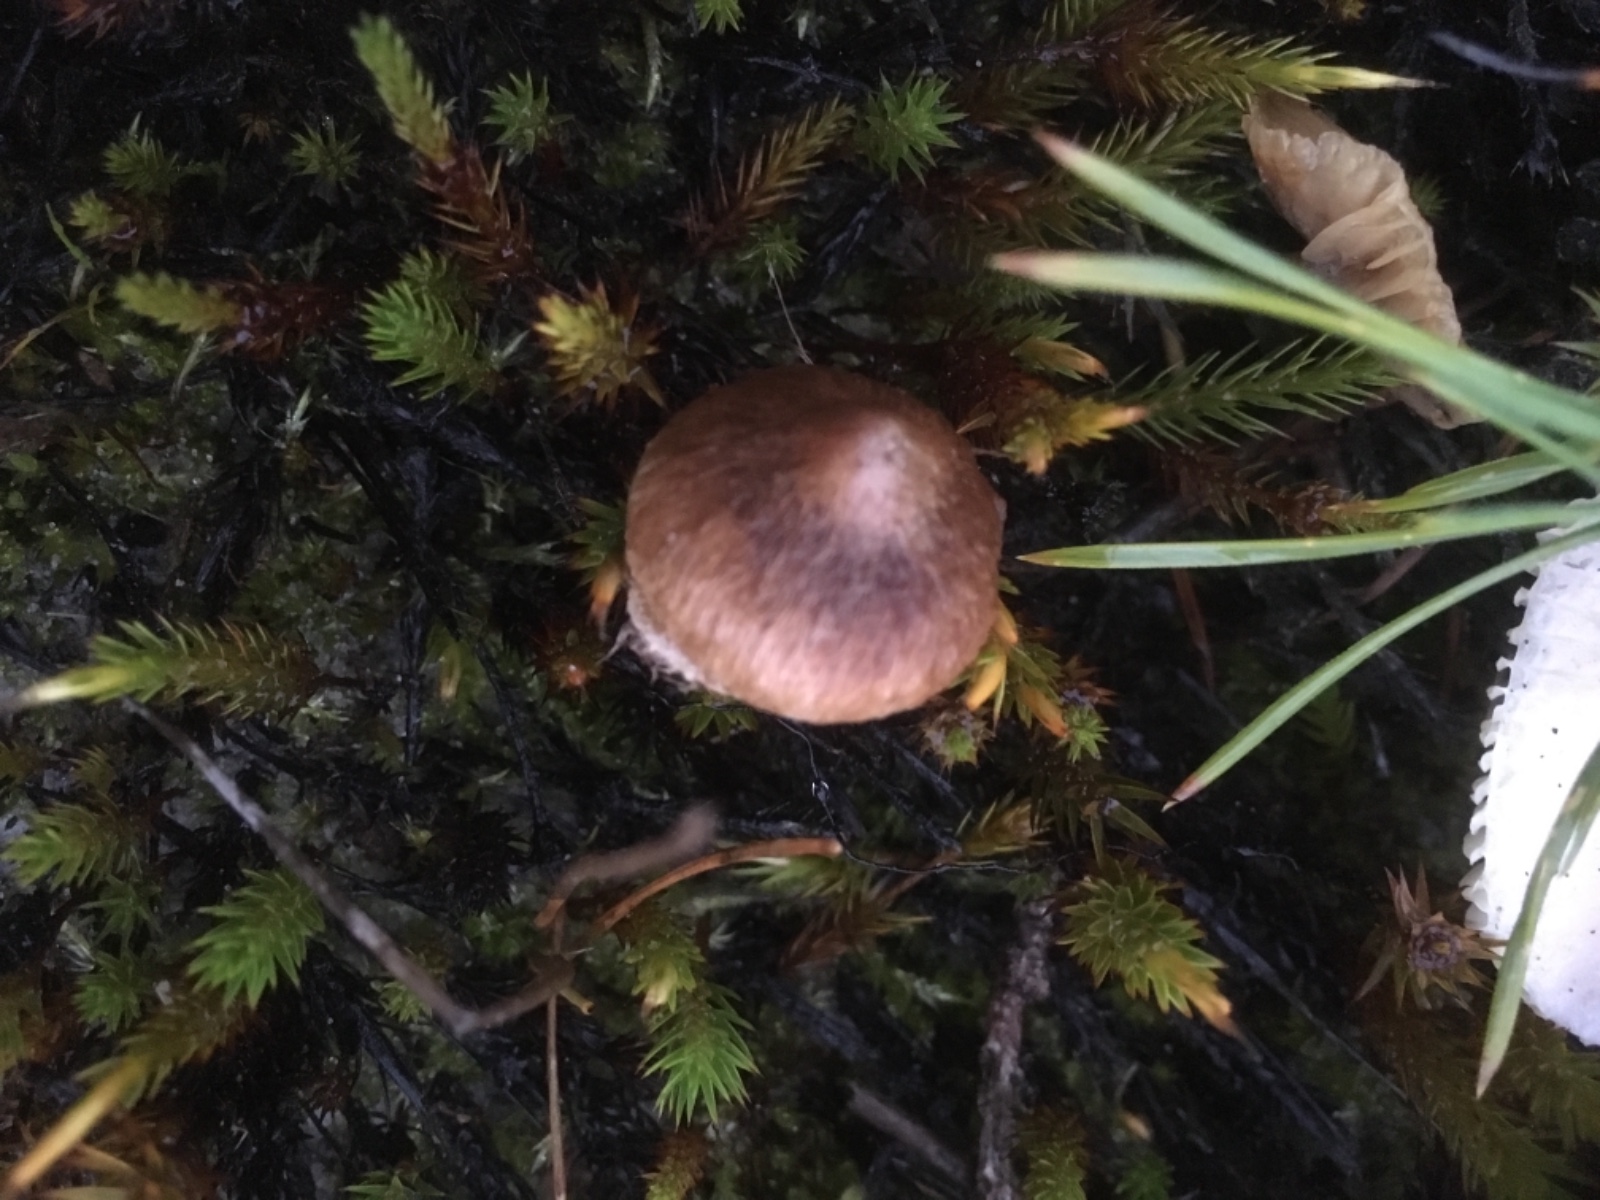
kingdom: Fungi
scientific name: Fungi
